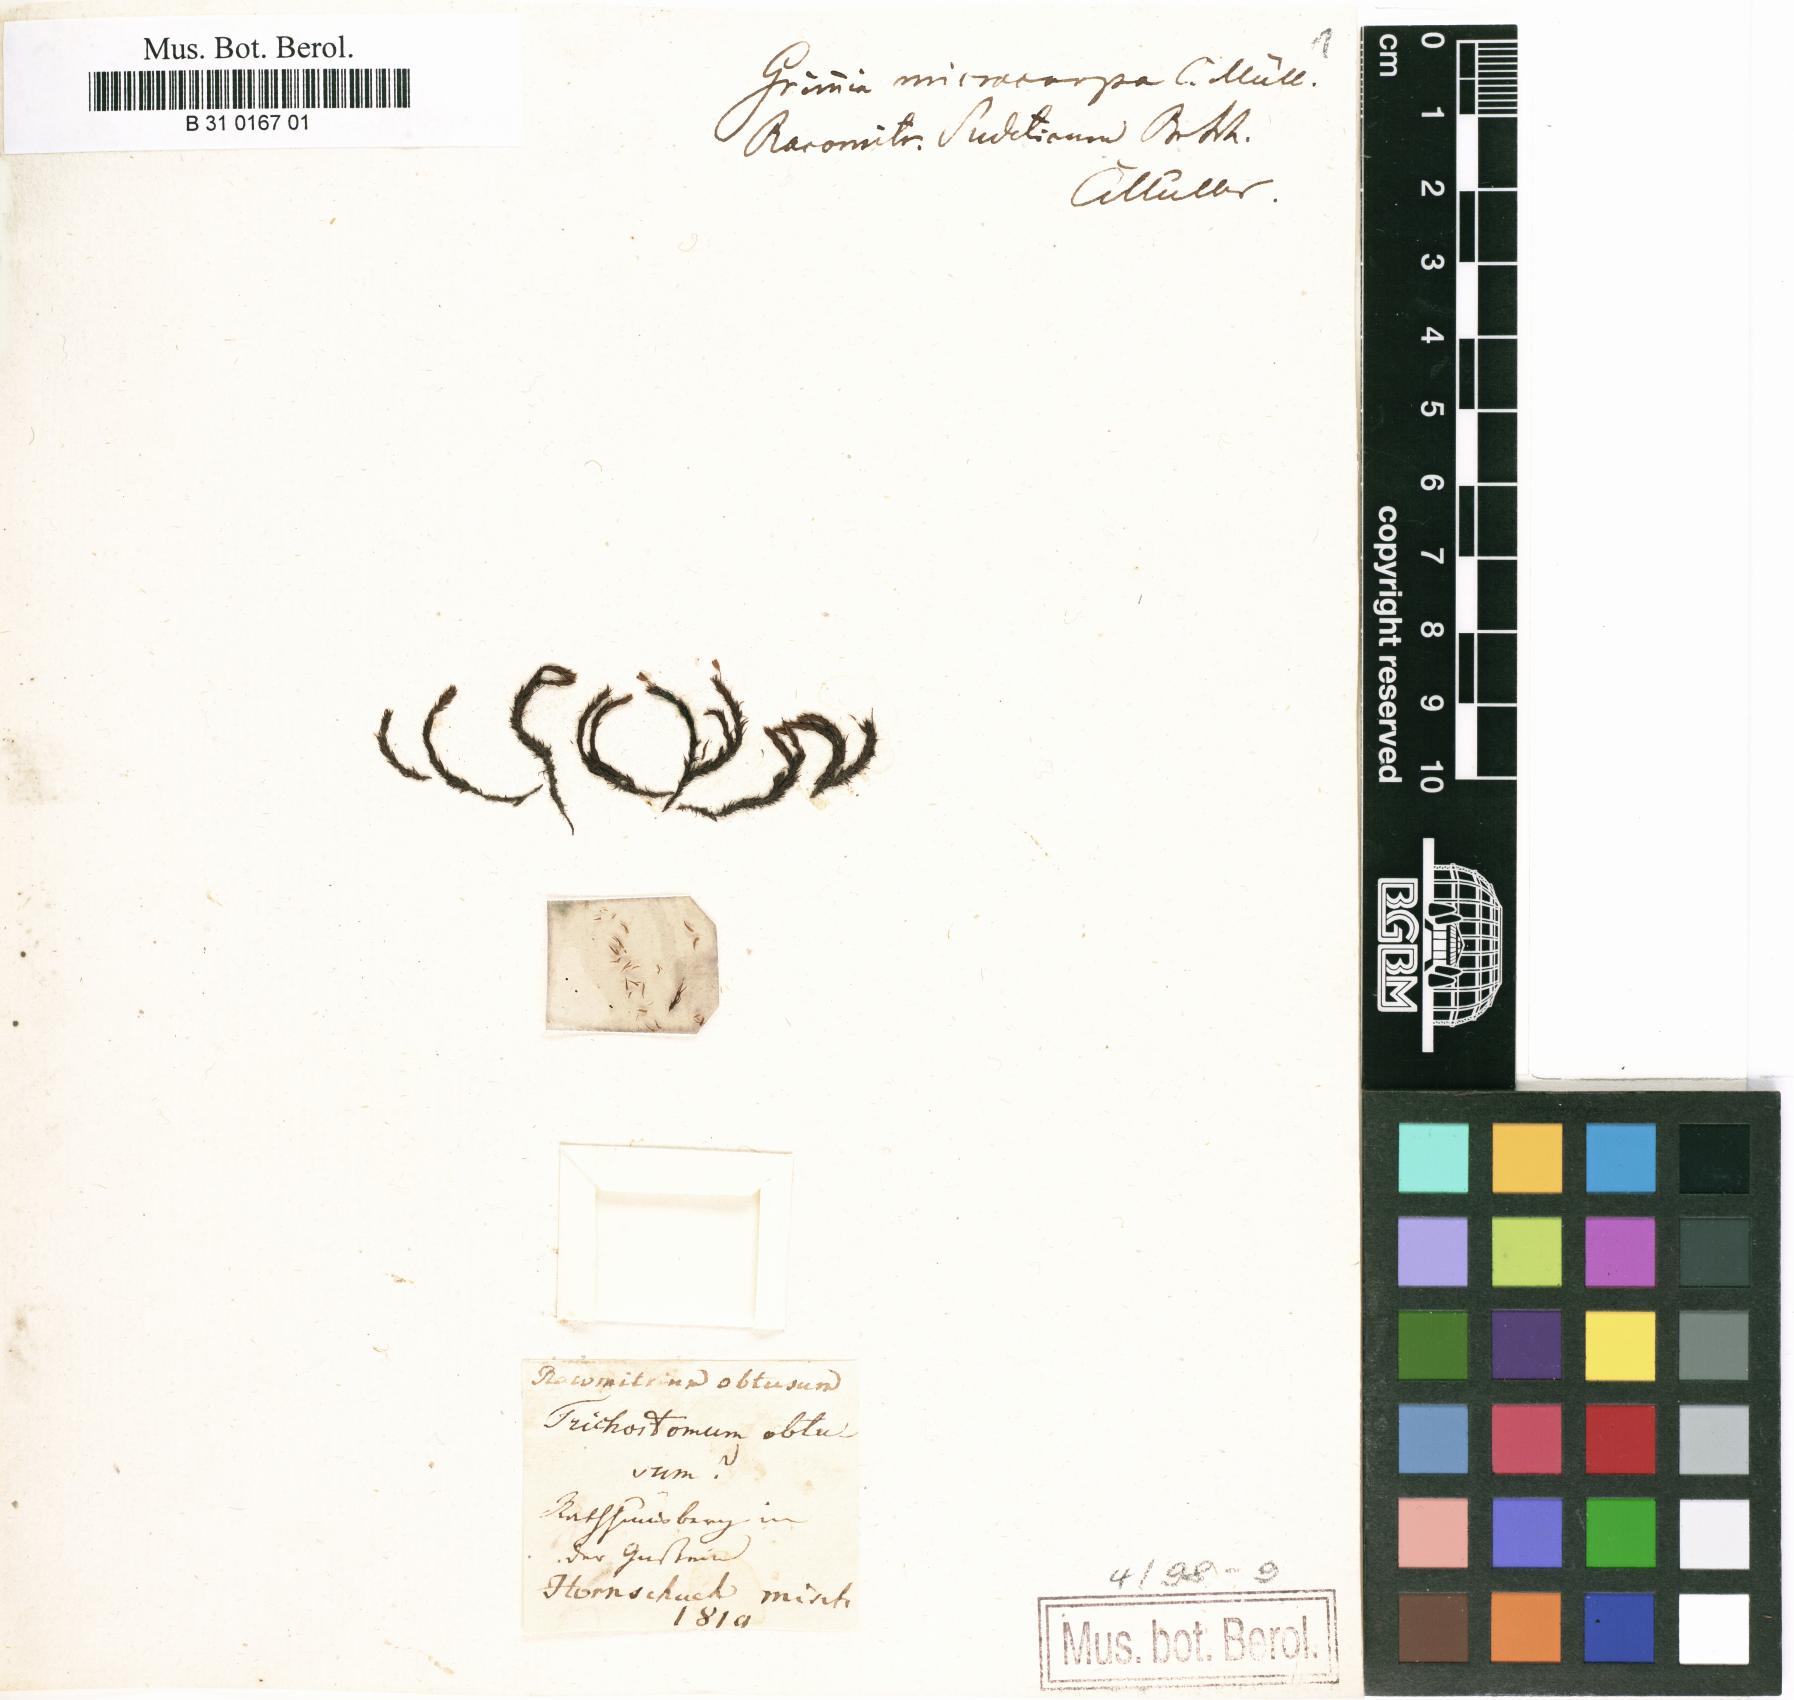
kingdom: Plantae
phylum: Bryophyta
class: Bryopsida
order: Grimmiales
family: Grimmiaceae
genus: Bucklandiella
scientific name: Bucklandiella obtusa
